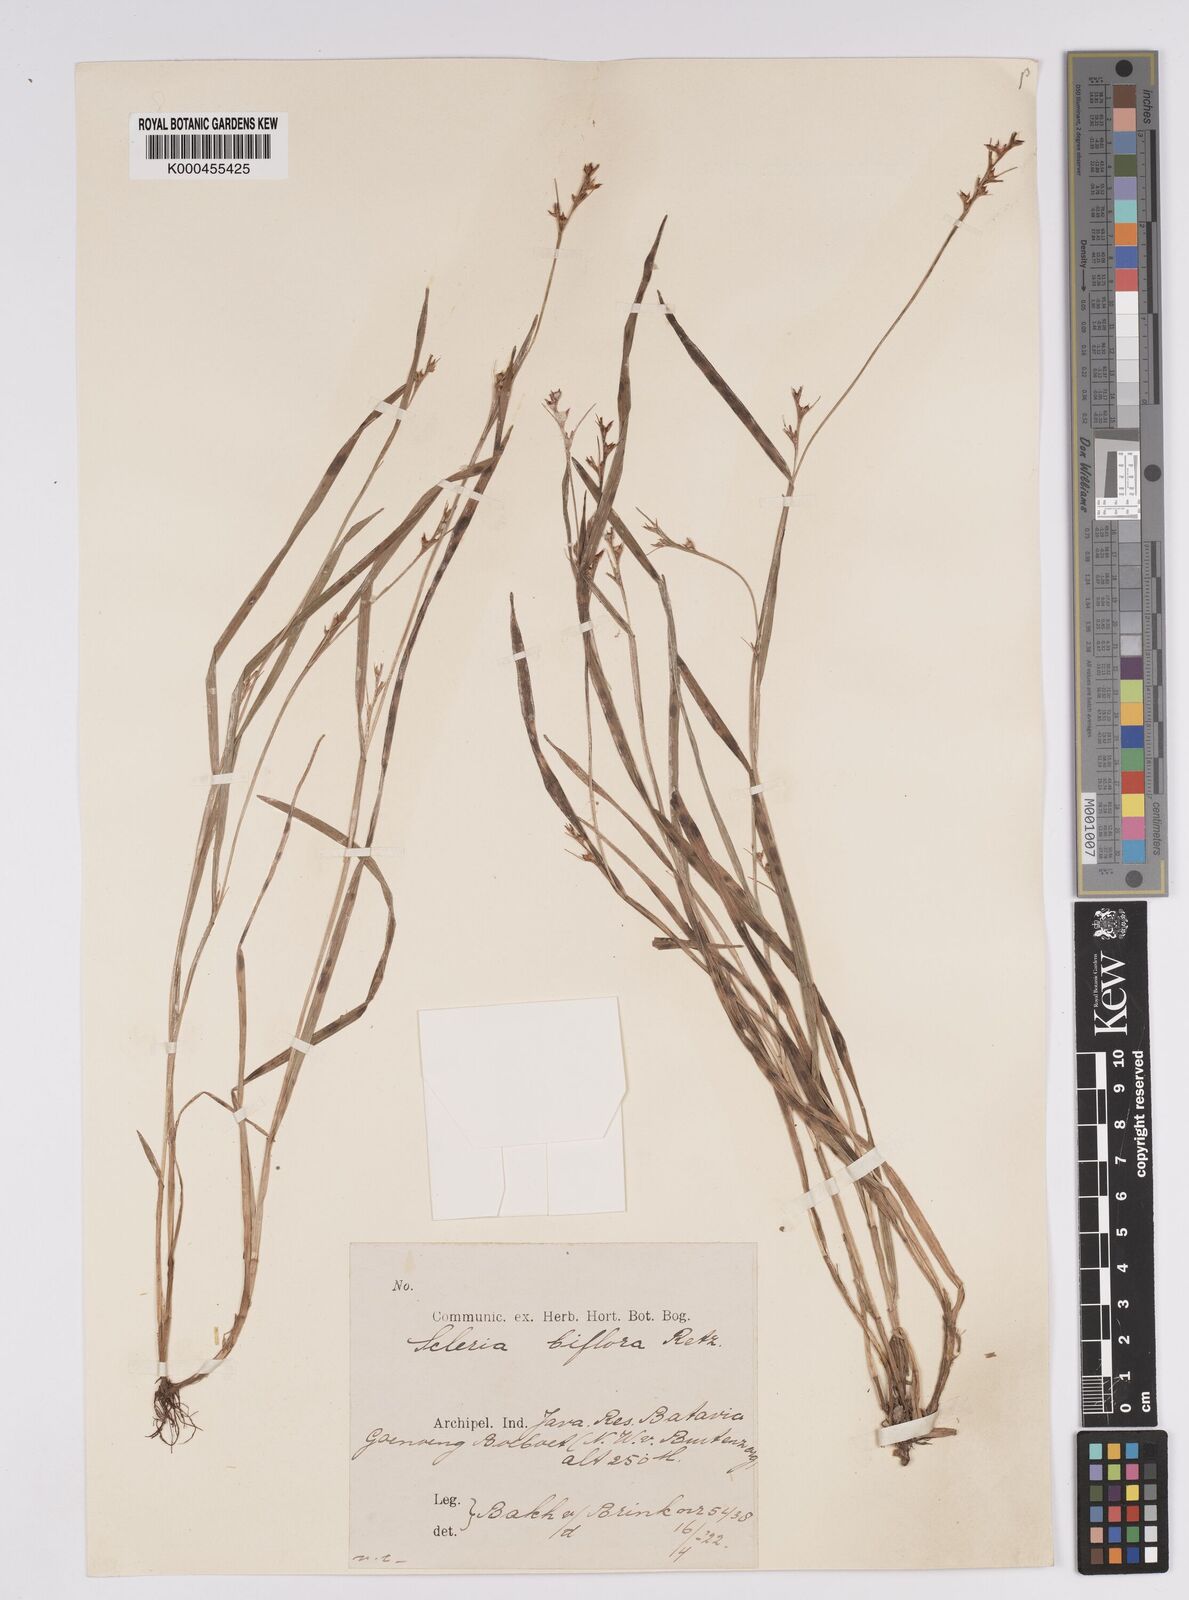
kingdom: Plantae
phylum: Tracheophyta
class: Liliopsida
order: Poales
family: Cyperaceae
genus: Scleria
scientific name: Scleria biflora
